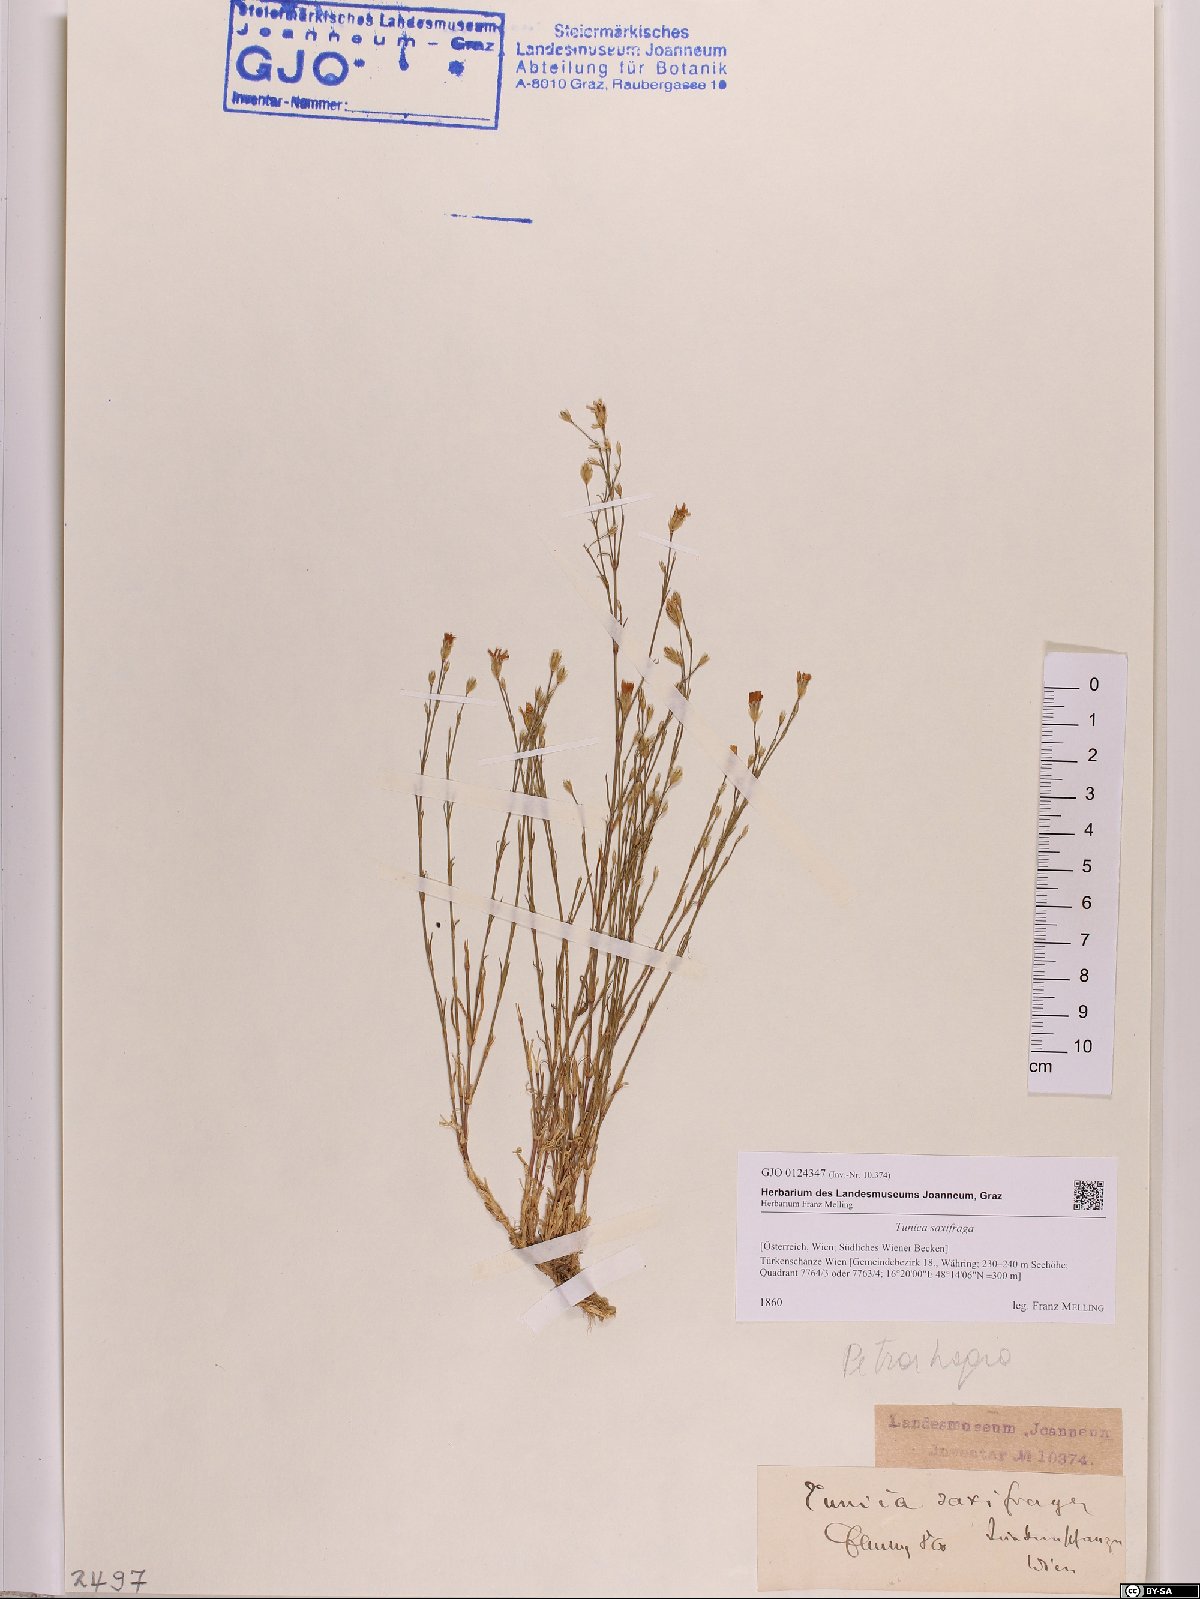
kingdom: Plantae
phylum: Tracheophyta
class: Magnoliopsida
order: Caryophyllales
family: Caryophyllaceae
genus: Petrorhagia
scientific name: Petrorhagia saxifraga
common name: Tunicflower
